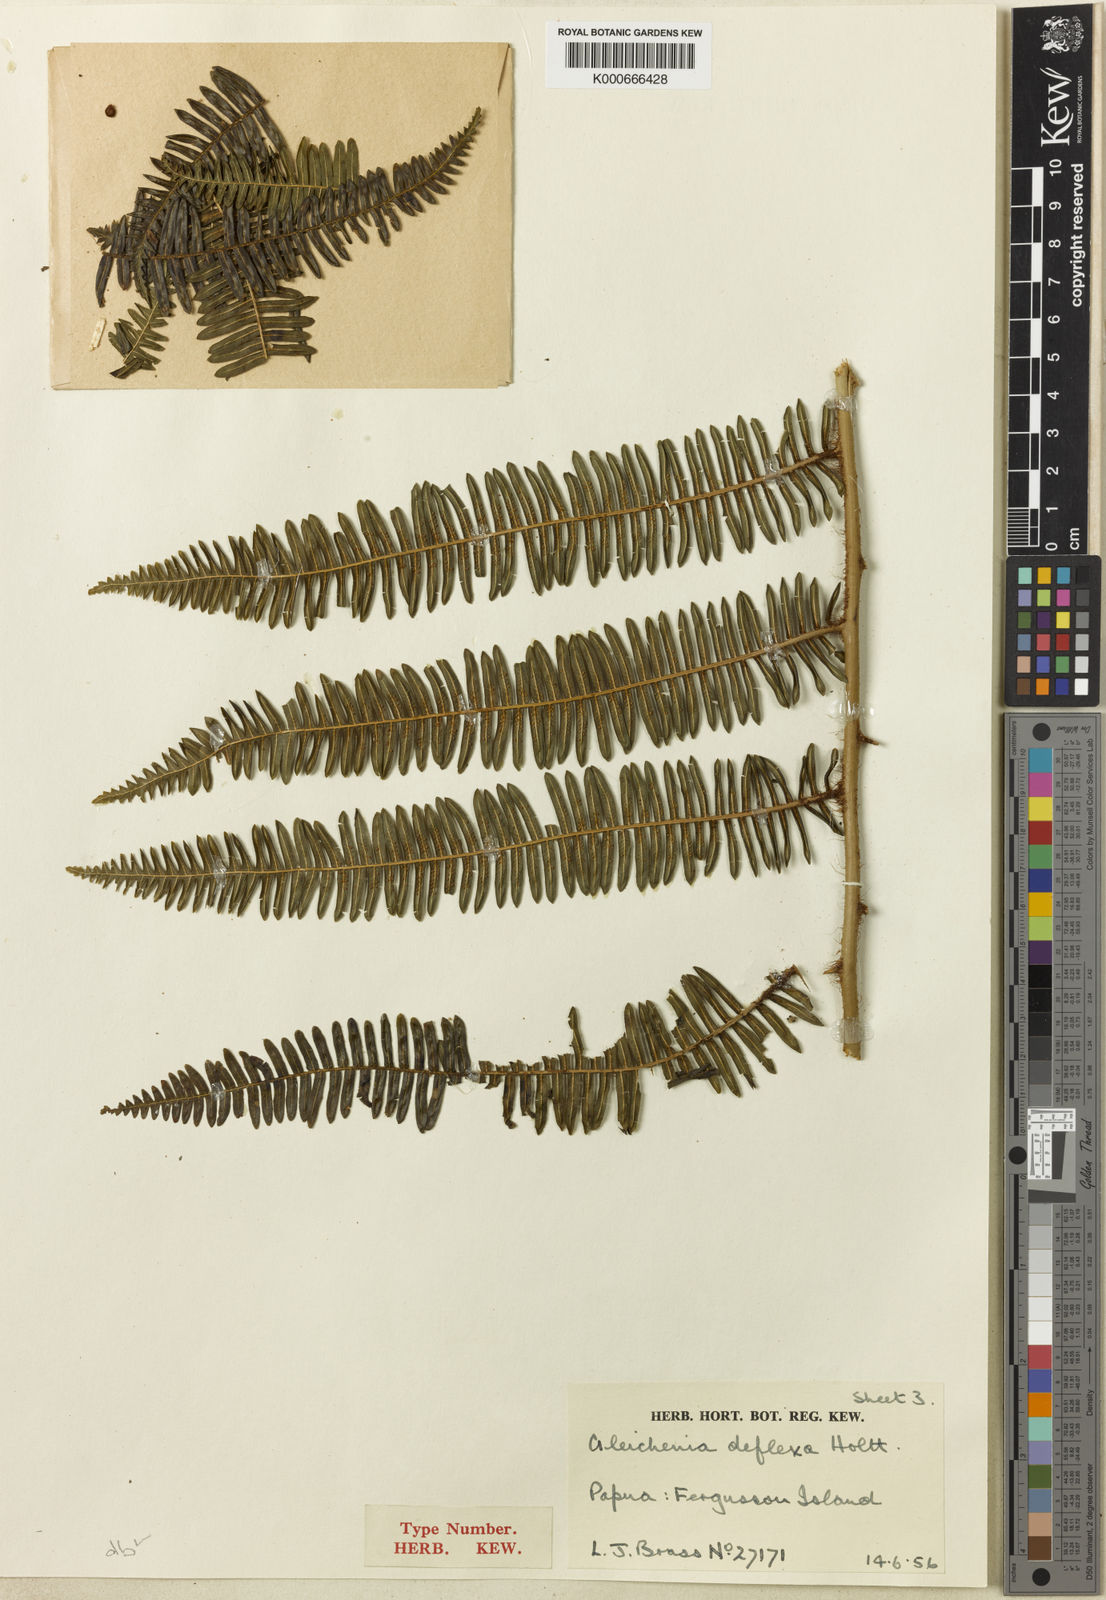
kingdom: Plantae
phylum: Tracheophyta
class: Polypodiopsida
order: Gleicheniales
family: Gleicheniaceae
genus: Diplopterygium
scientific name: Diplopterygium deflexum
